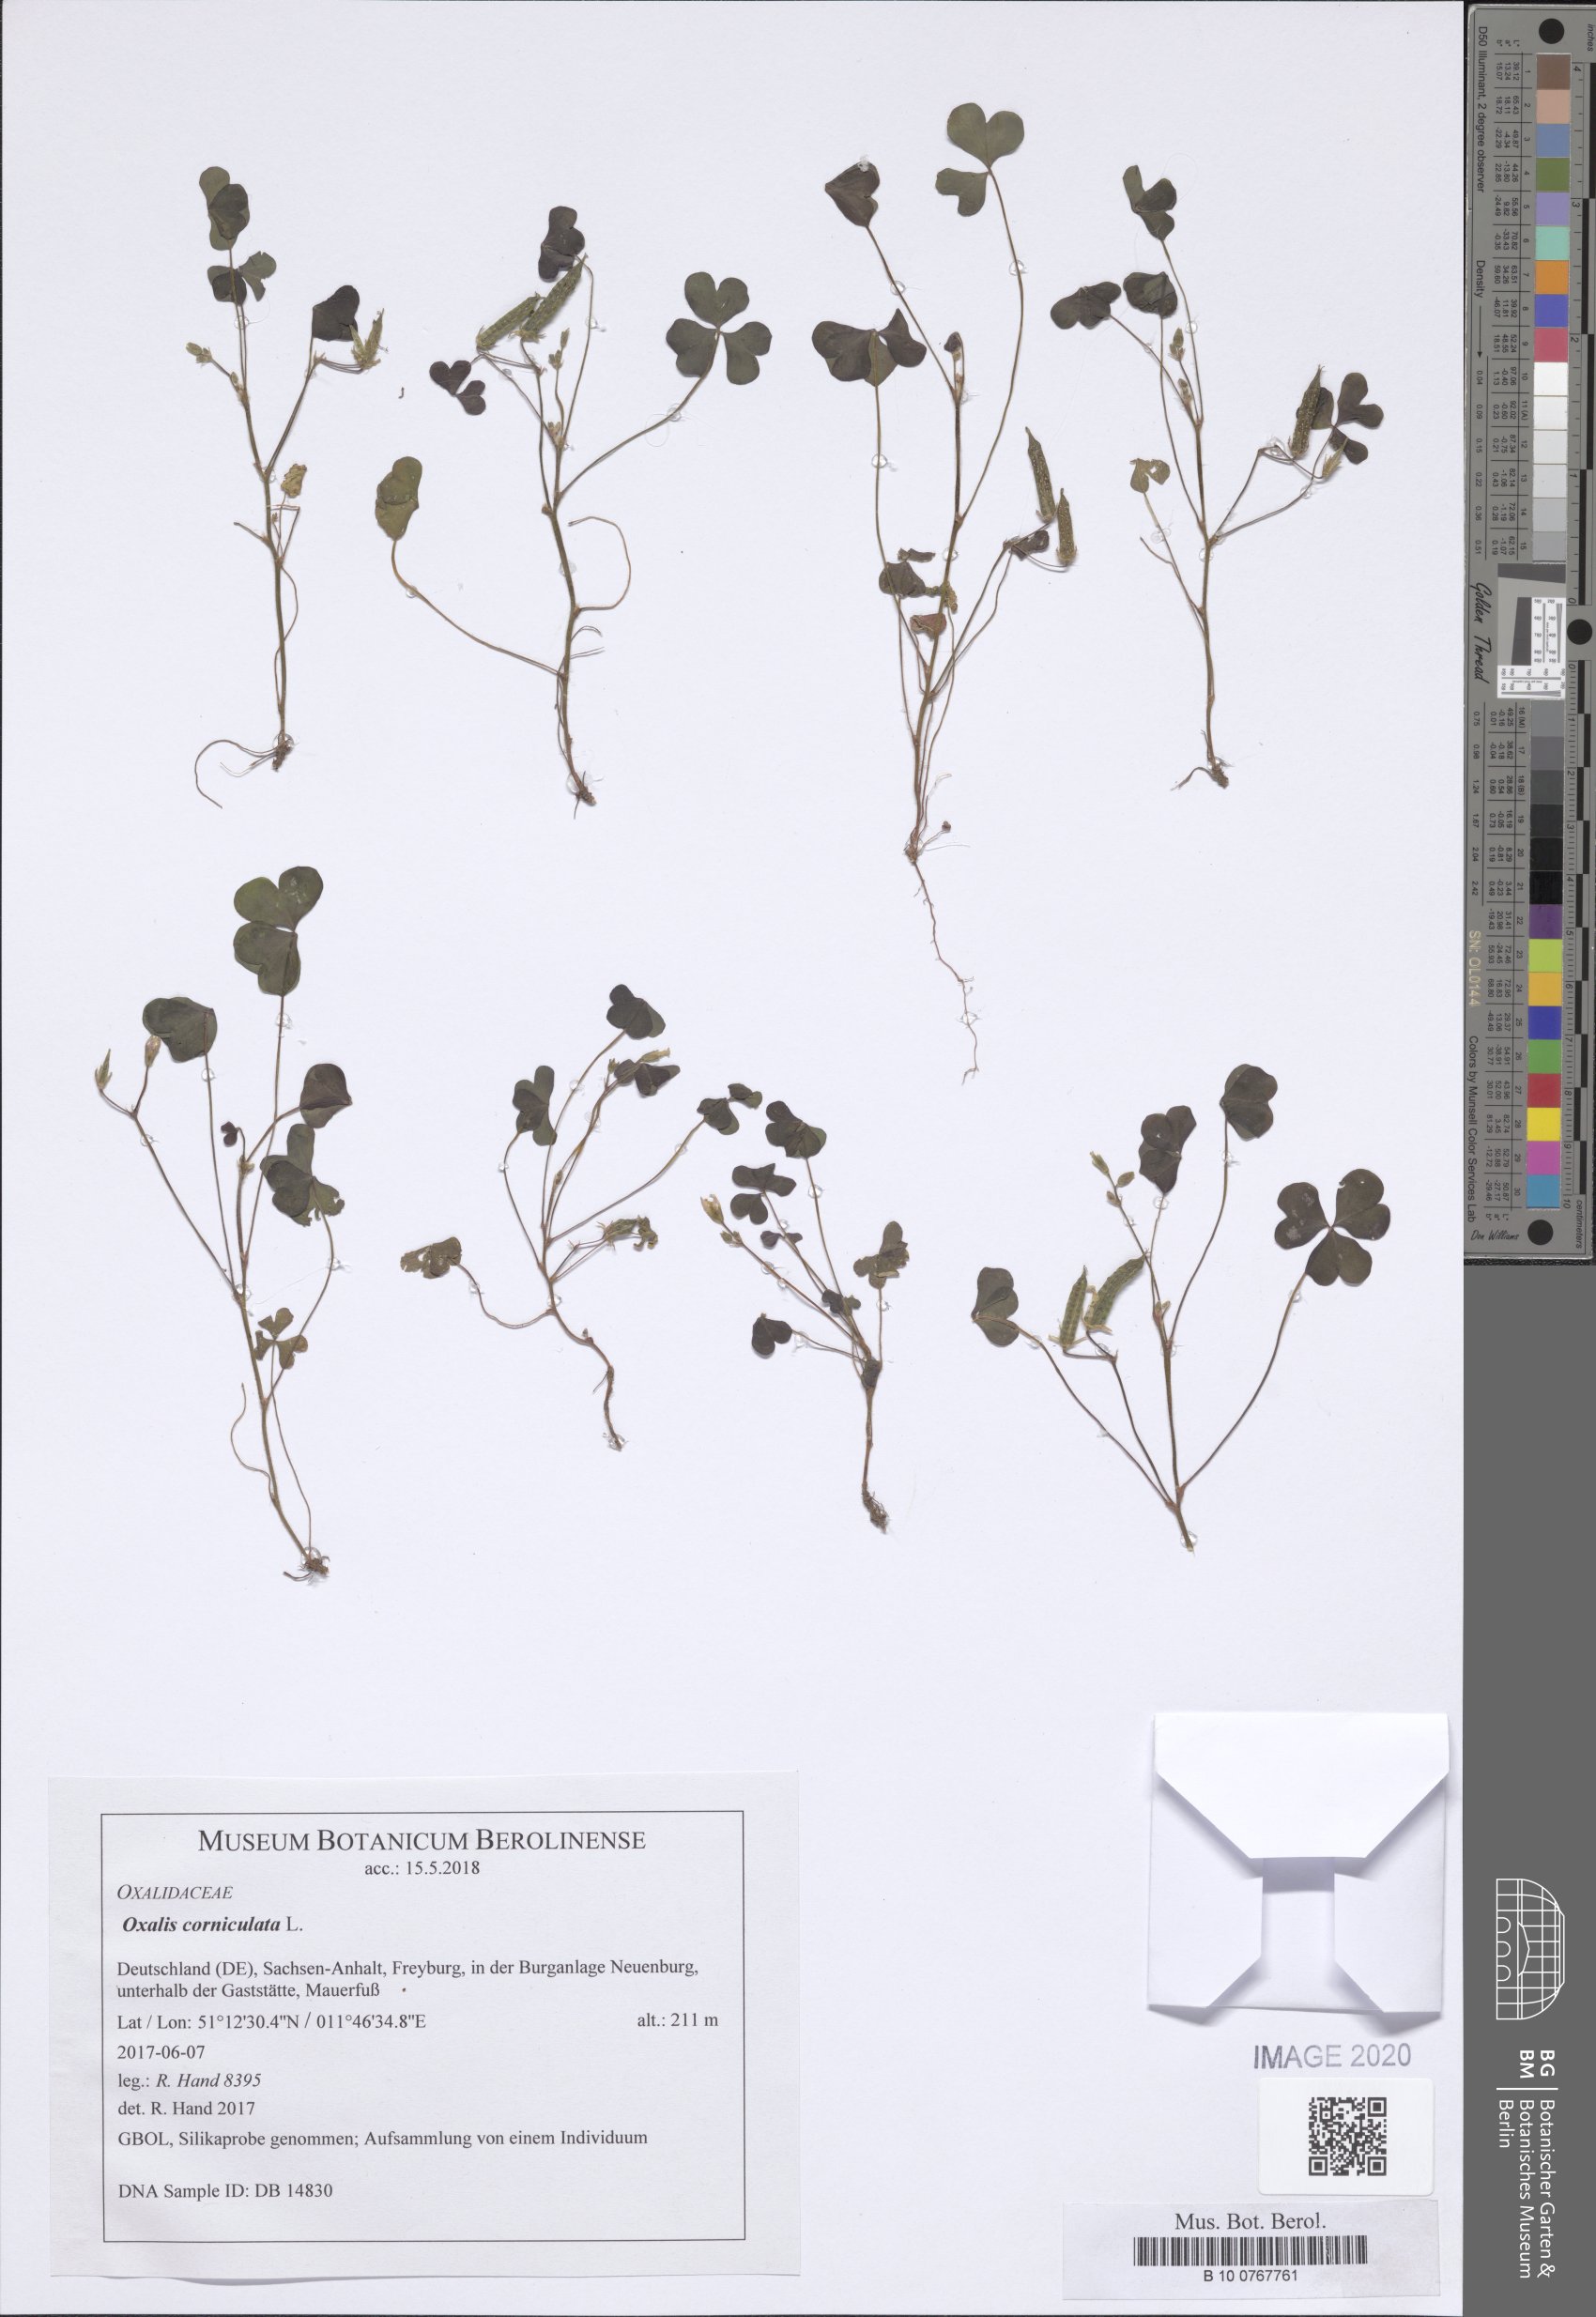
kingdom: Plantae
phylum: Tracheophyta
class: Magnoliopsida
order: Oxalidales
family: Oxalidaceae
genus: Oxalis
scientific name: Oxalis corniculata
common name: Procumbent yellow-sorrel
